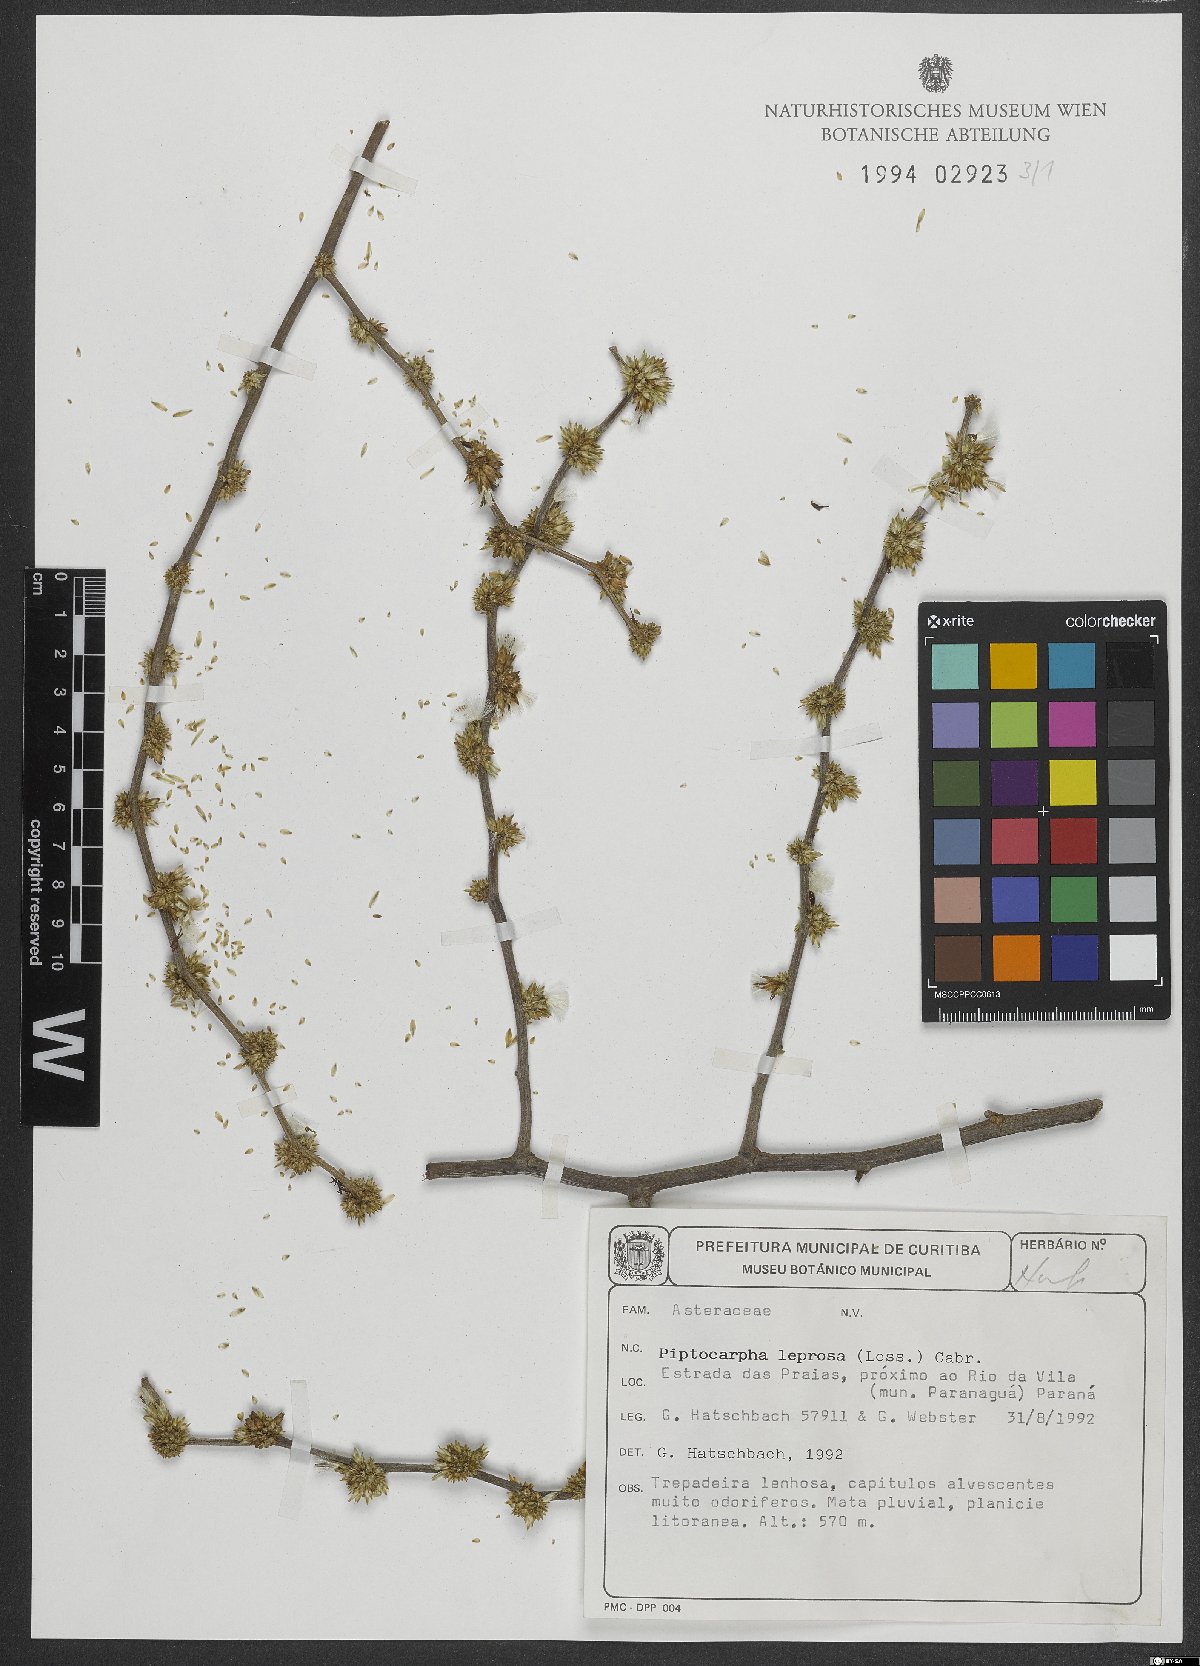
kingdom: Plantae
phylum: Tracheophyta
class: Magnoliopsida
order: Asterales
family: Asteraceae
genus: Piptocarpha
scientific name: Piptocarpha leprosa
